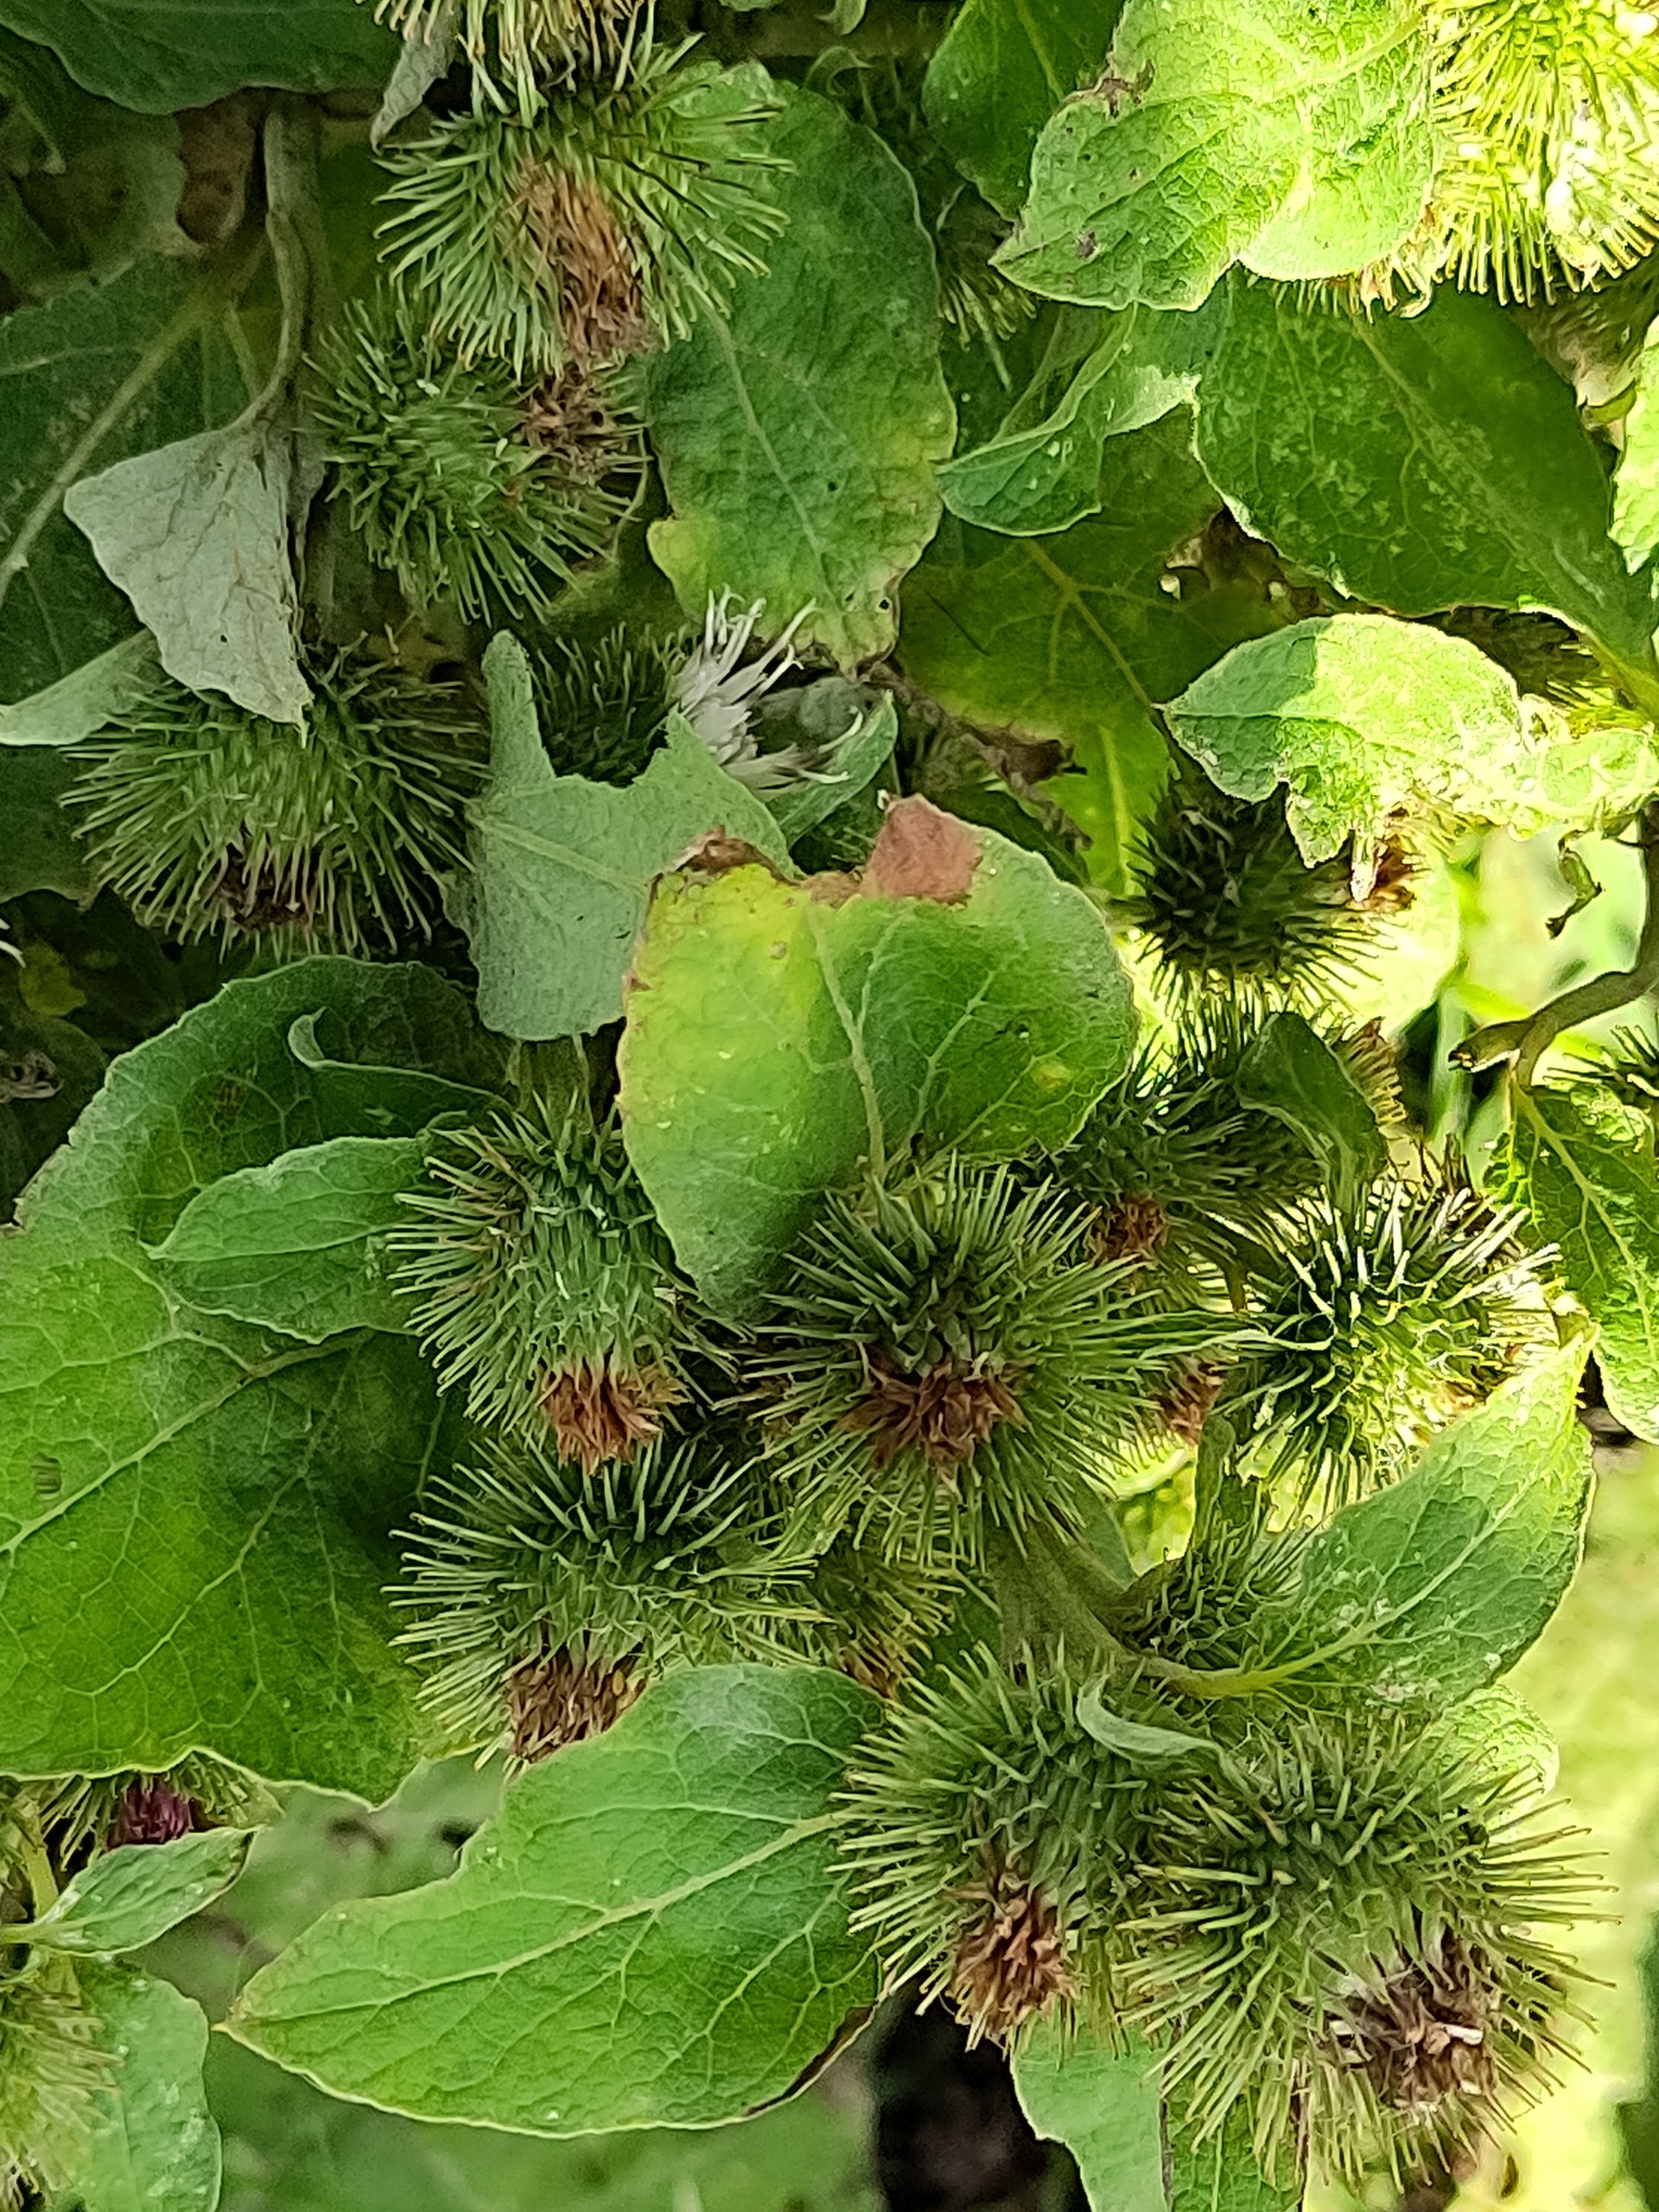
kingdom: Plantae
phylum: Tracheophyta
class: Magnoliopsida
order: Asterales
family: Asteraceae
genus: Arctium
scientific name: Arctium minus
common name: Liden burre
